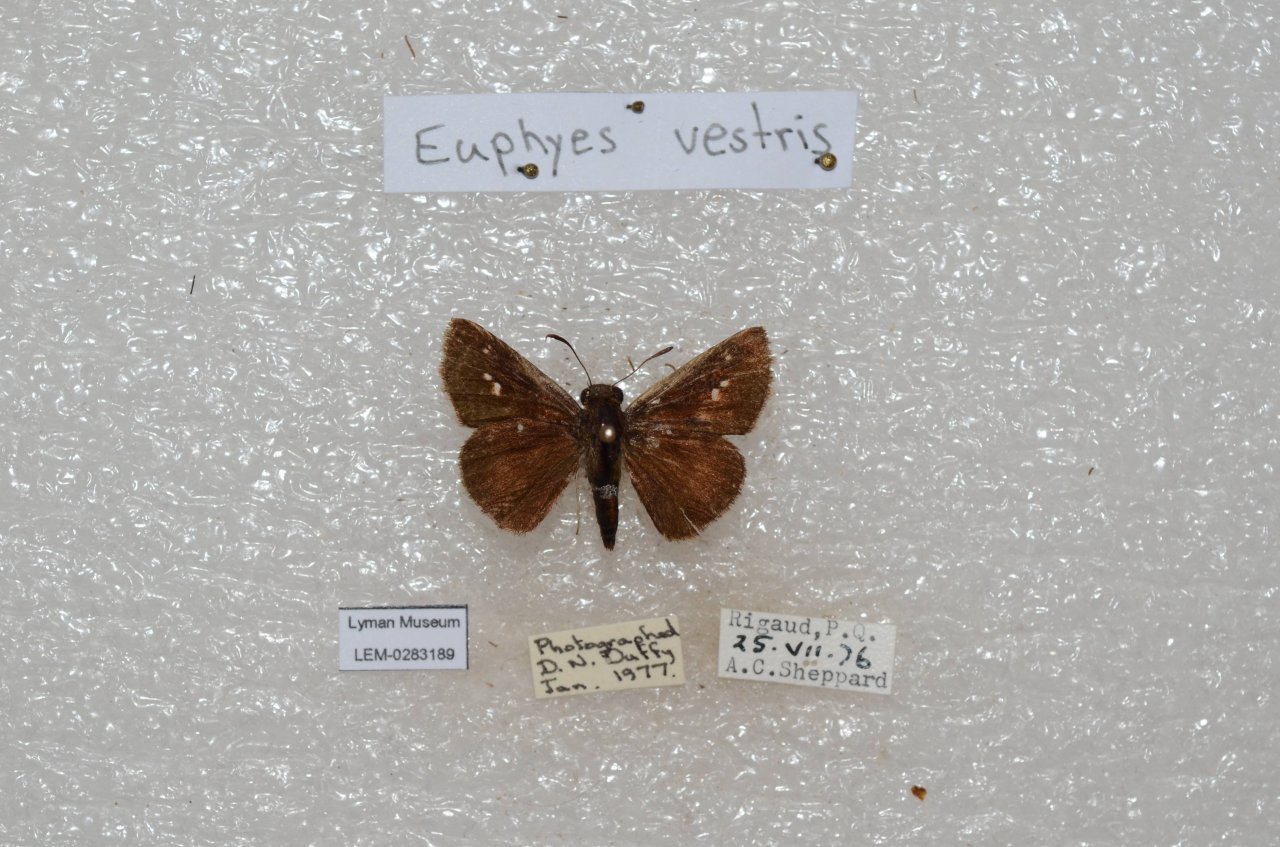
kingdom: Animalia
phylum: Arthropoda
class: Insecta
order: Lepidoptera
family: Hesperiidae
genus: Euphyes
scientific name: Euphyes vestris
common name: Dun Skipper
